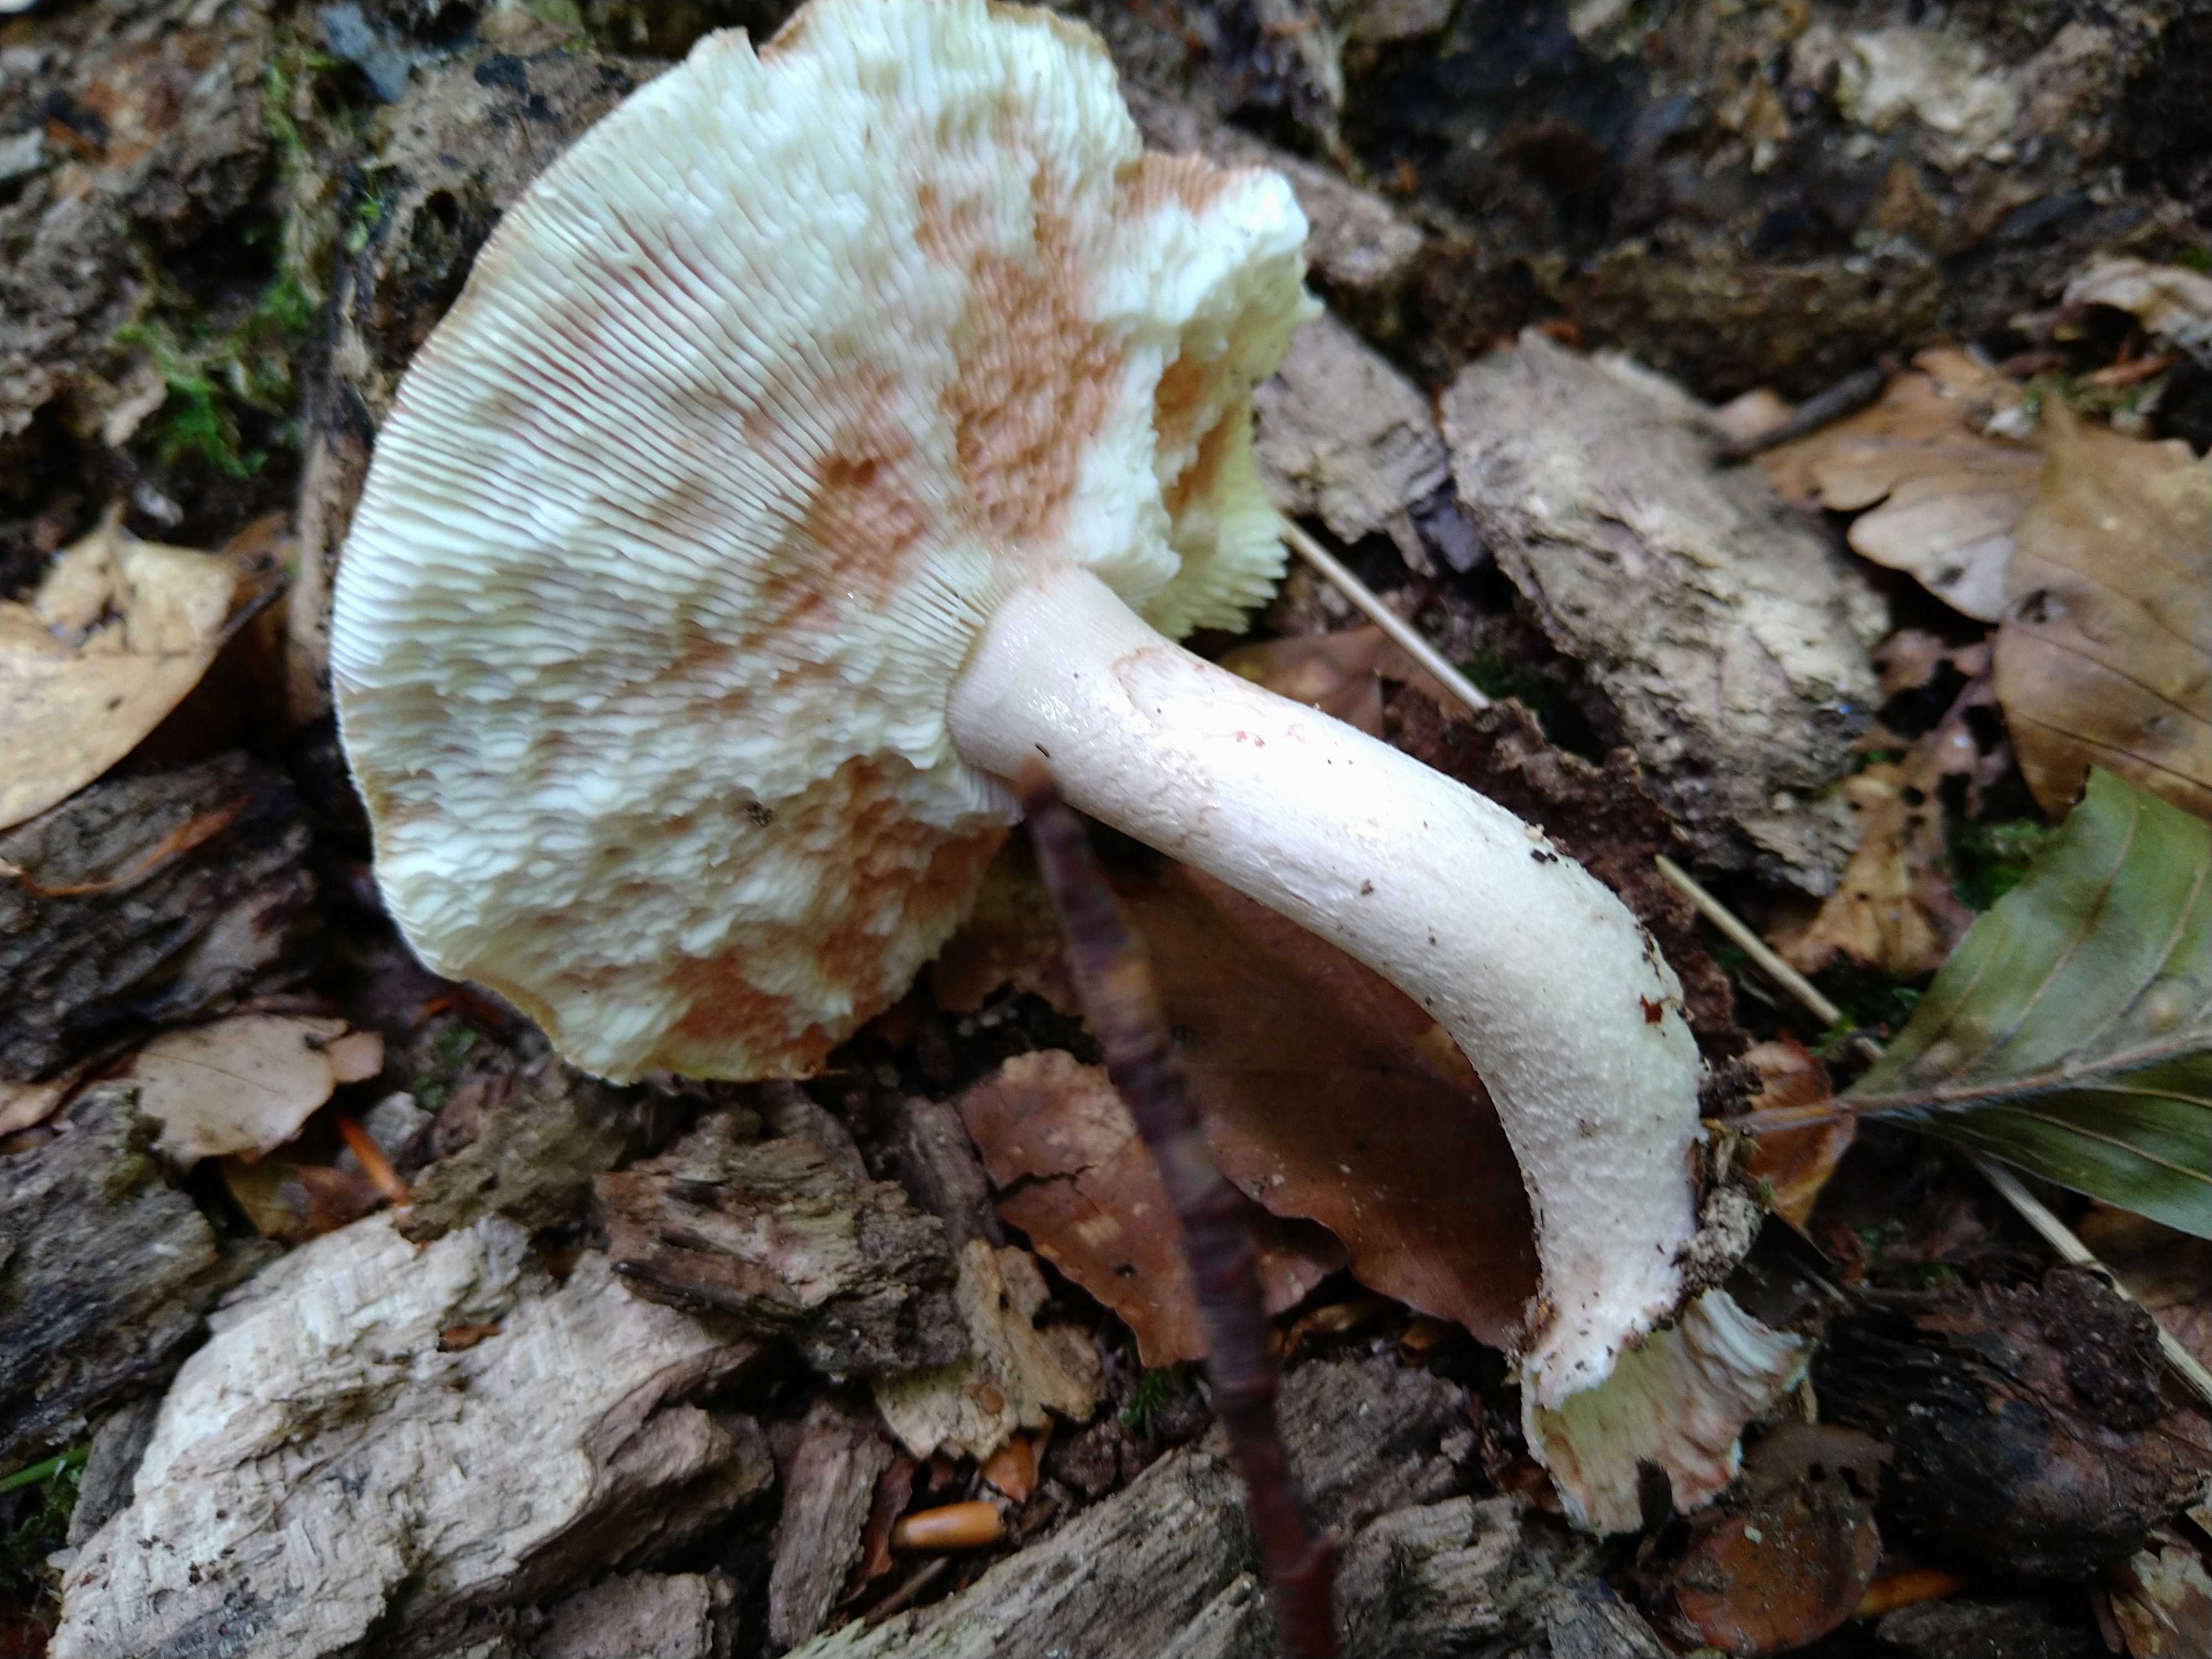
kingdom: Fungi
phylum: Basidiomycota
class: Agaricomycetes
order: Agaricales
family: Amanitaceae
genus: Amanita
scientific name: Amanita rubescens
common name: rødmende fluesvamp
